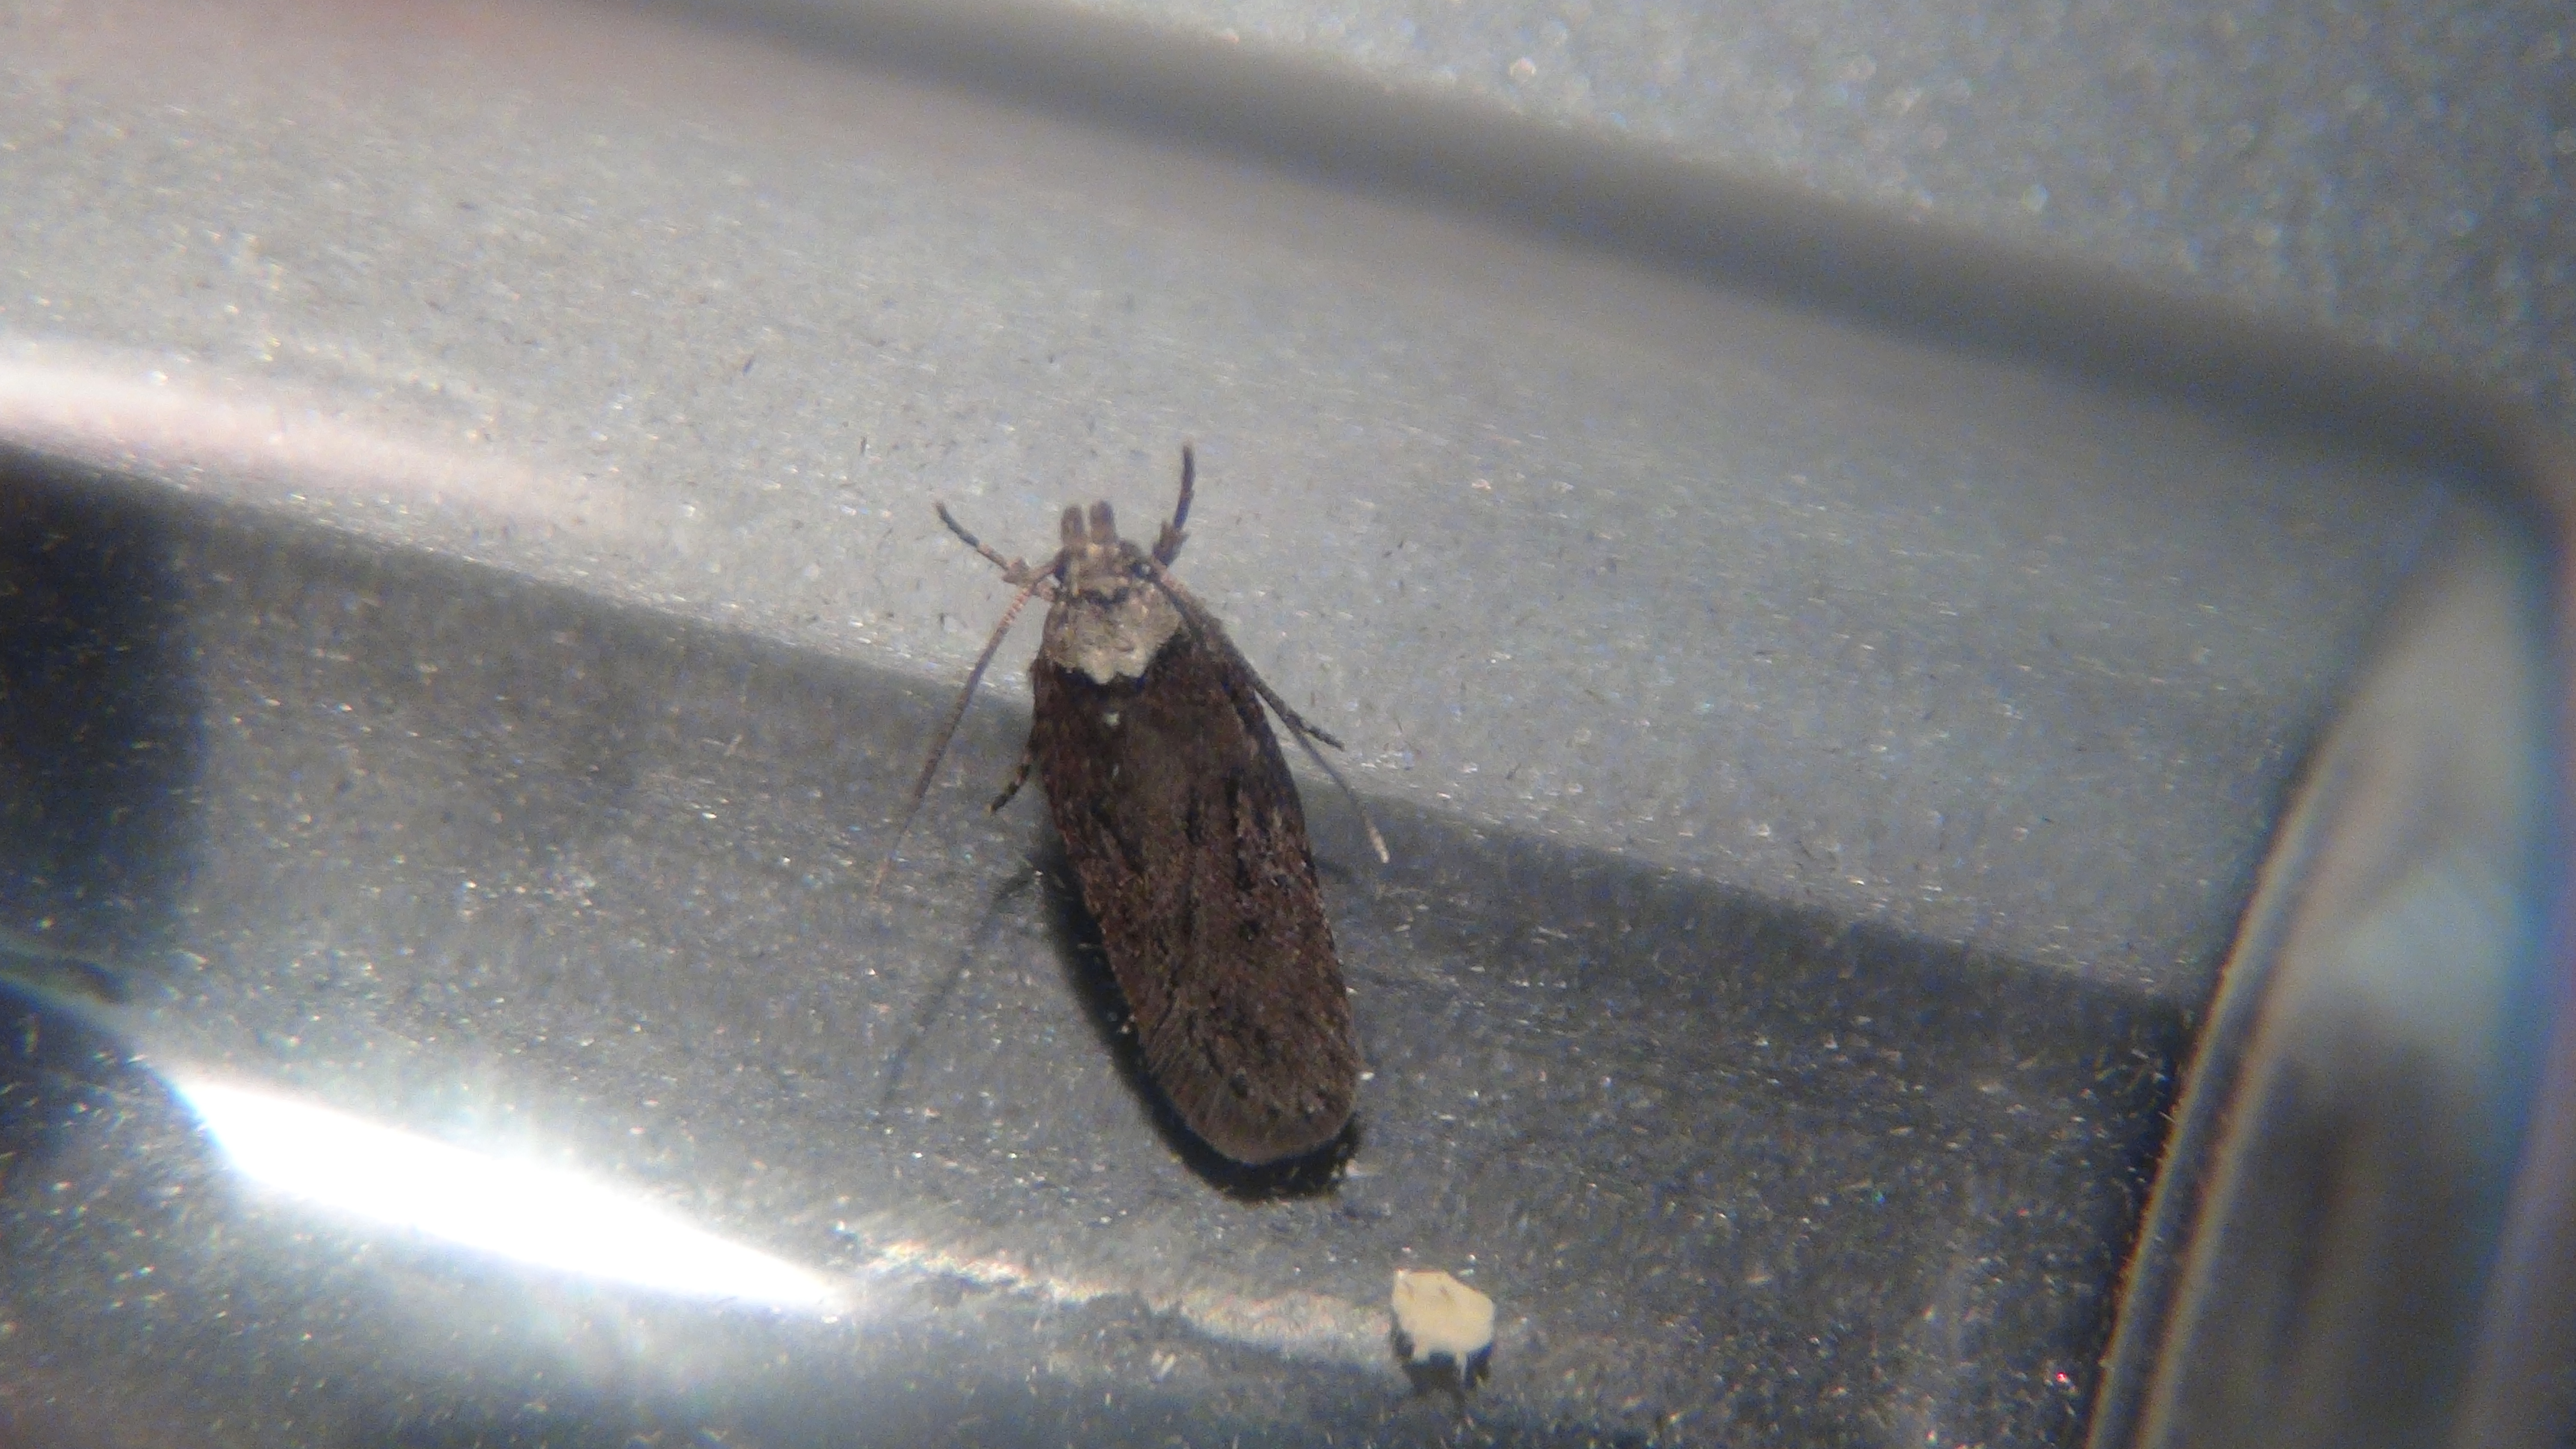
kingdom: Animalia
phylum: Arthropoda
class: Insecta
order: Lepidoptera
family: Depressariidae
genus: Depressaria
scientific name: Depressaria artemisiae
